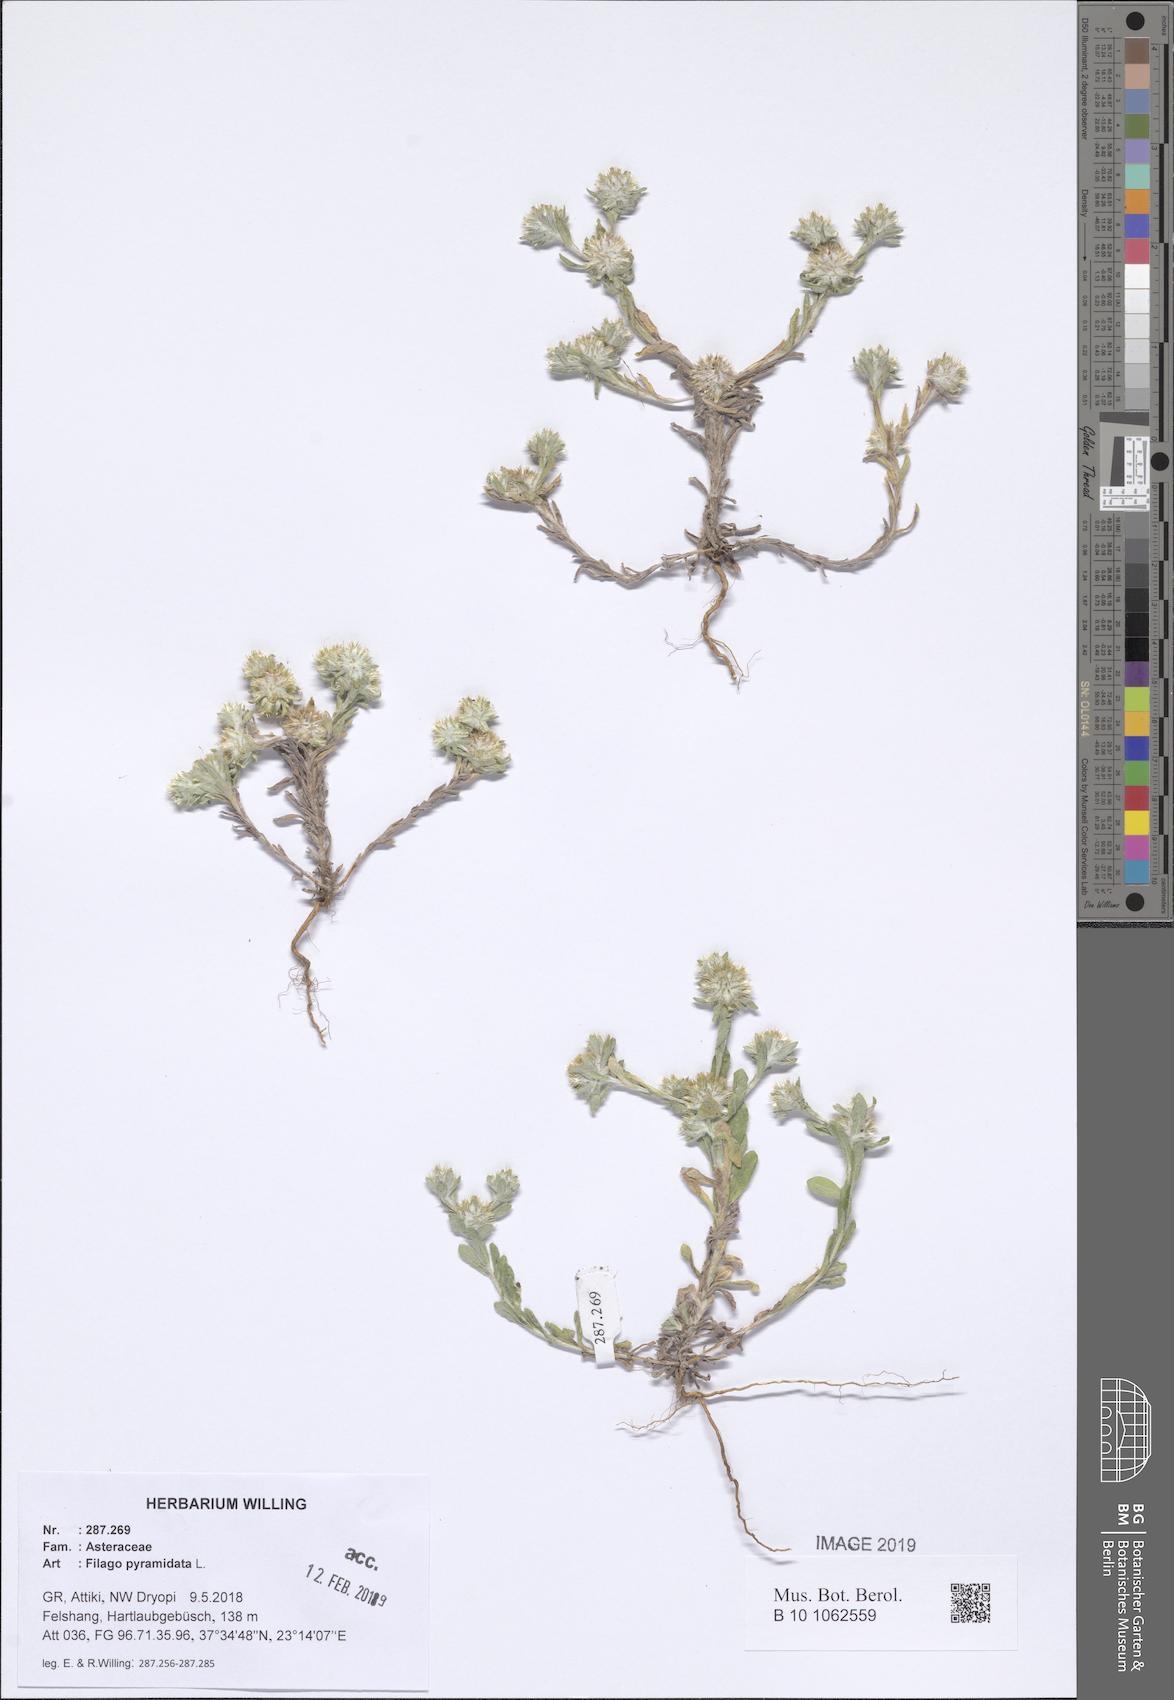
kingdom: Plantae
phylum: Tracheophyta
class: Magnoliopsida
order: Asterales
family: Asteraceae
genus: Filago
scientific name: Filago pyramidata
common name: Broad-leaved cudweed
